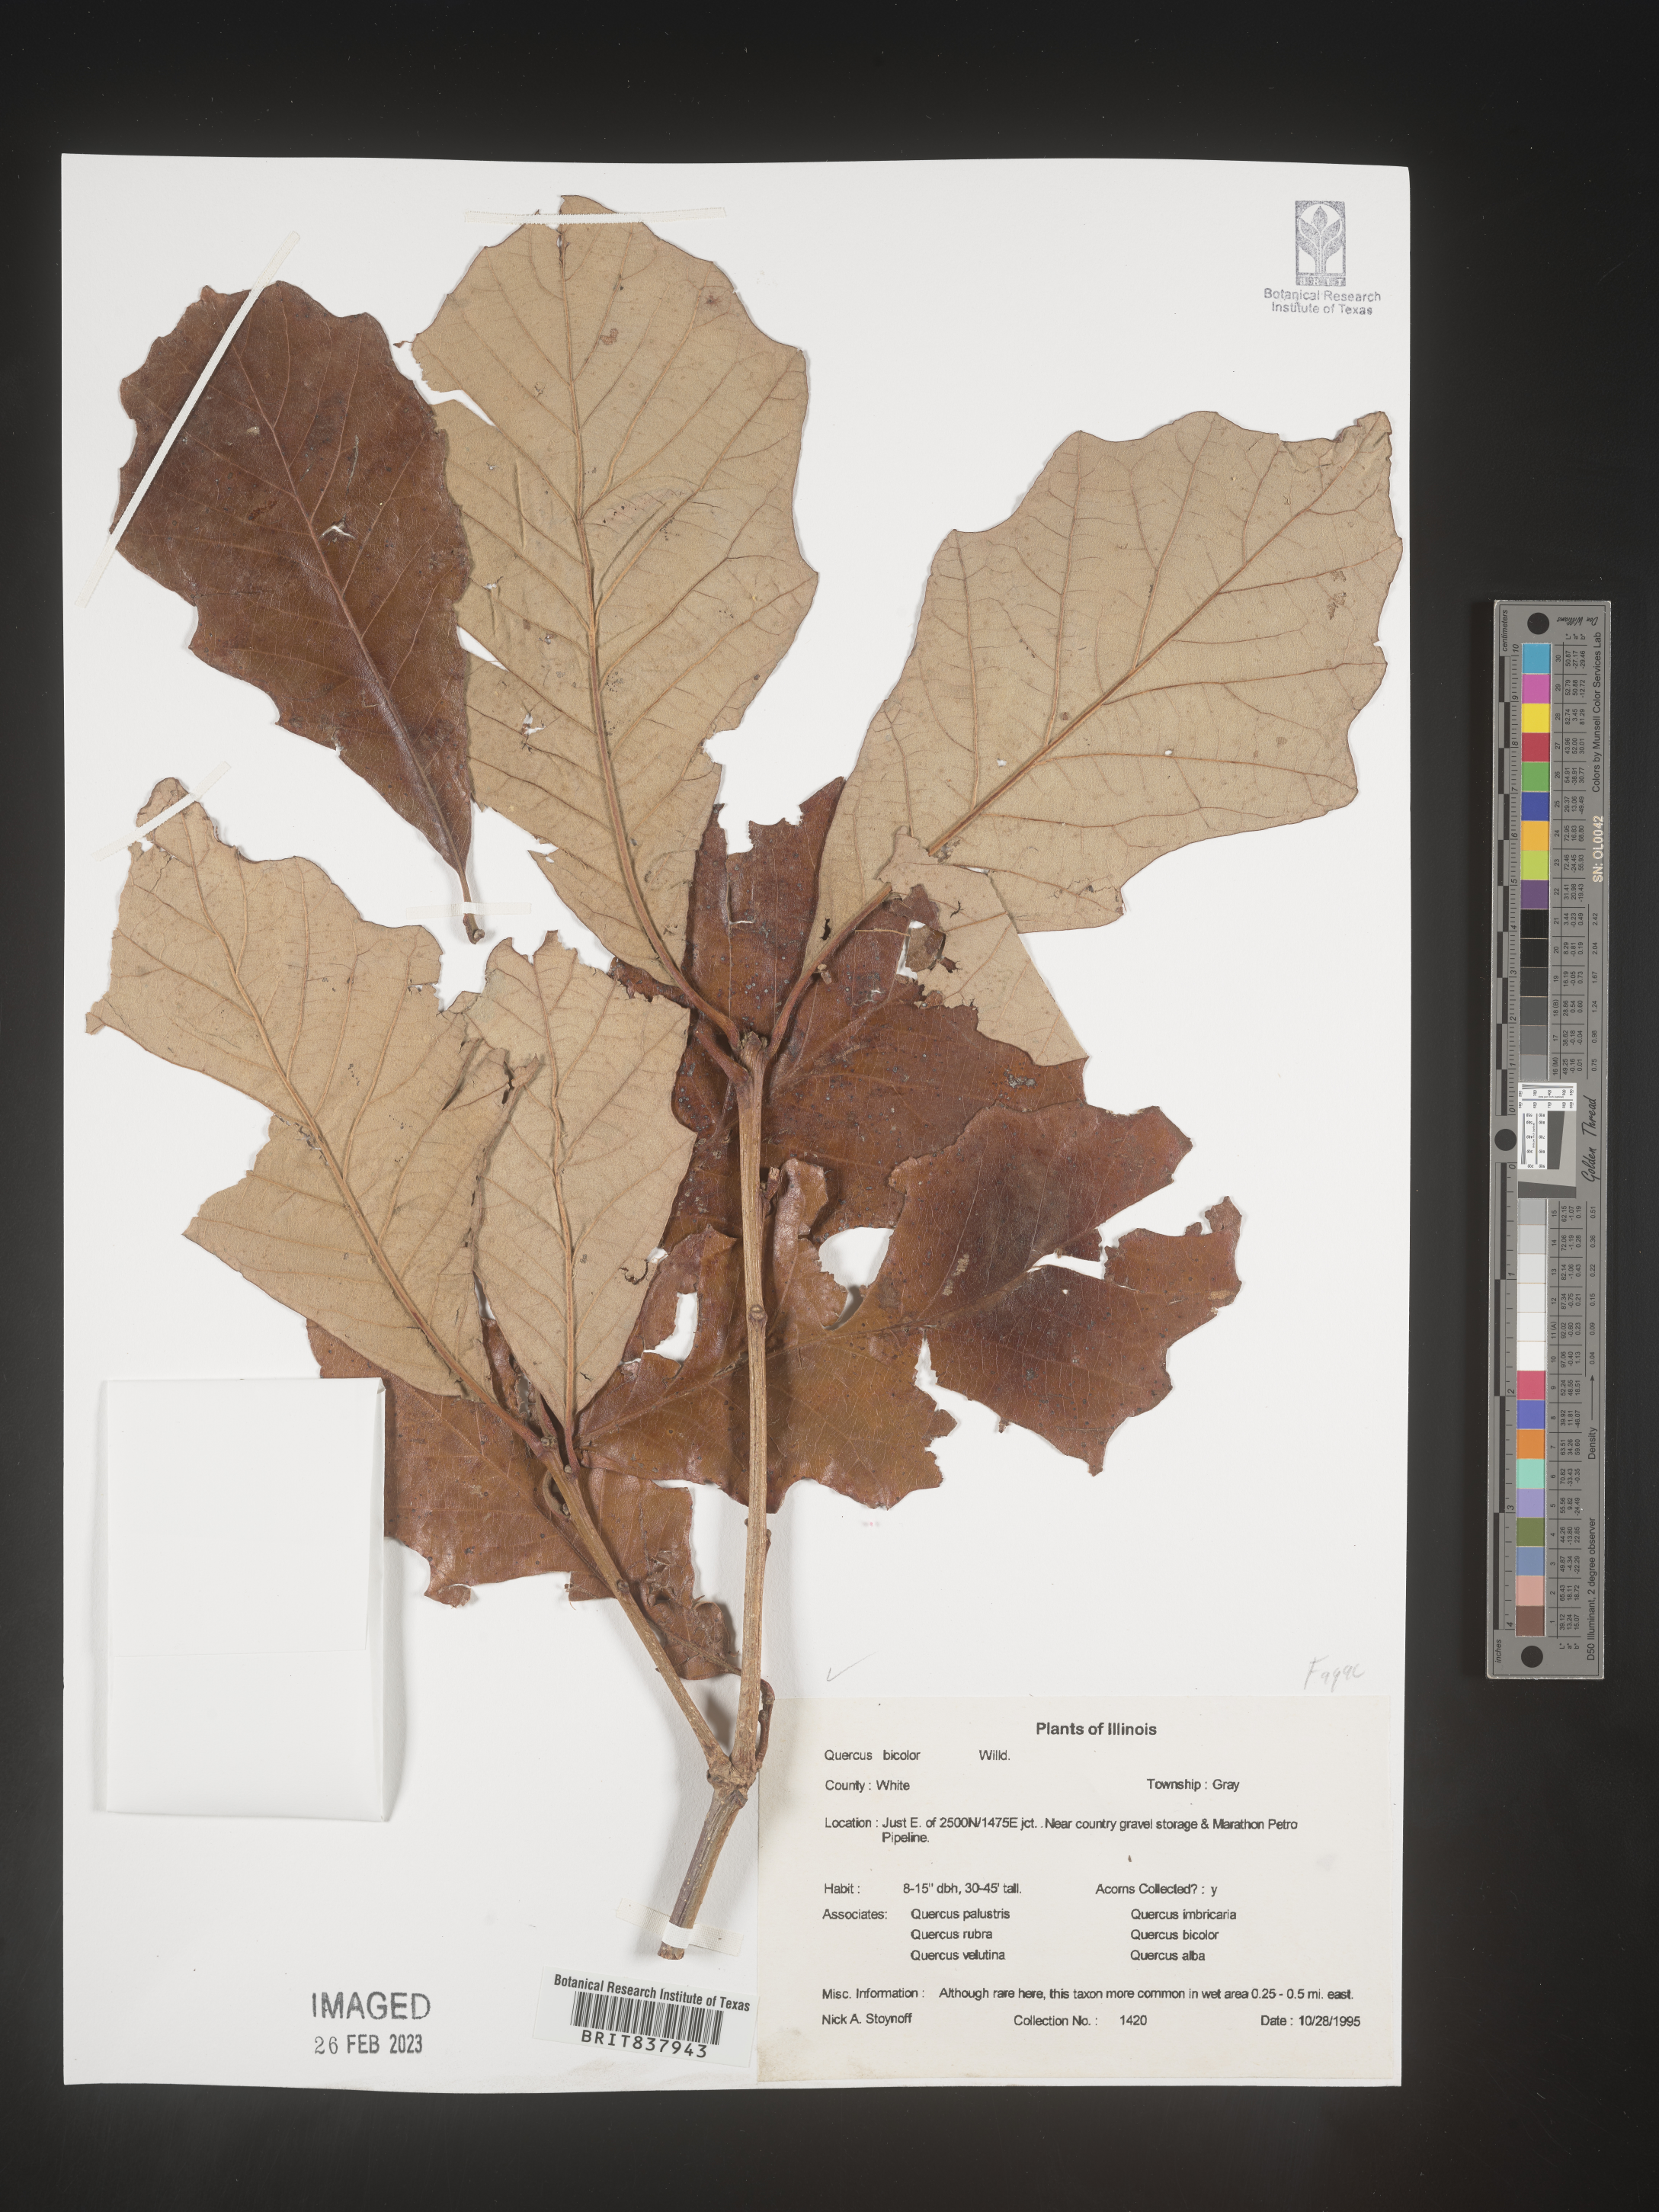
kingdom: Plantae
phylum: Tracheophyta
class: Magnoliopsida
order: Fagales
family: Fagaceae
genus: Quercus
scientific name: Quercus bicolor
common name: Swamp white oak
